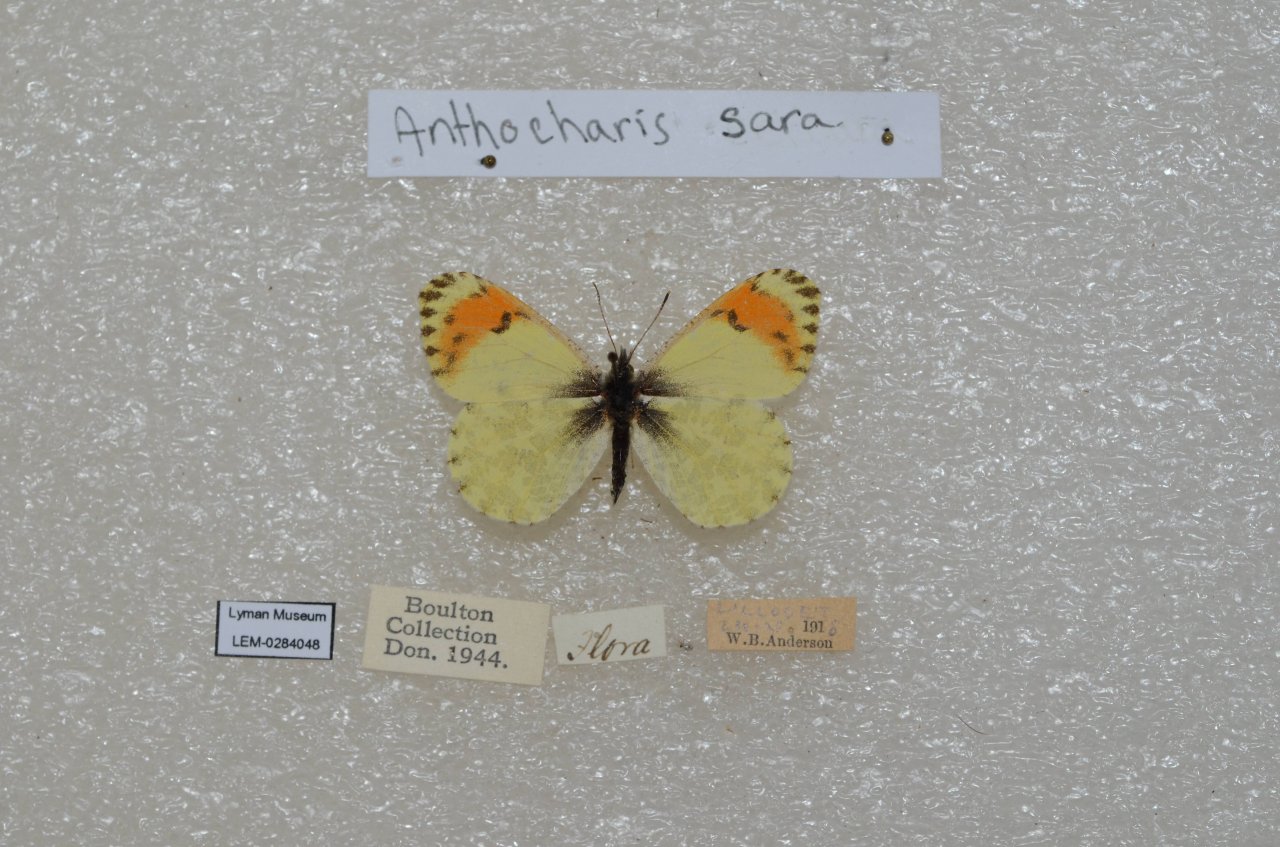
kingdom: Animalia
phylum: Arthropoda
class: Insecta
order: Lepidoptera
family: Pieridae
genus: Anthocharis
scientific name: Anthocharis sara
